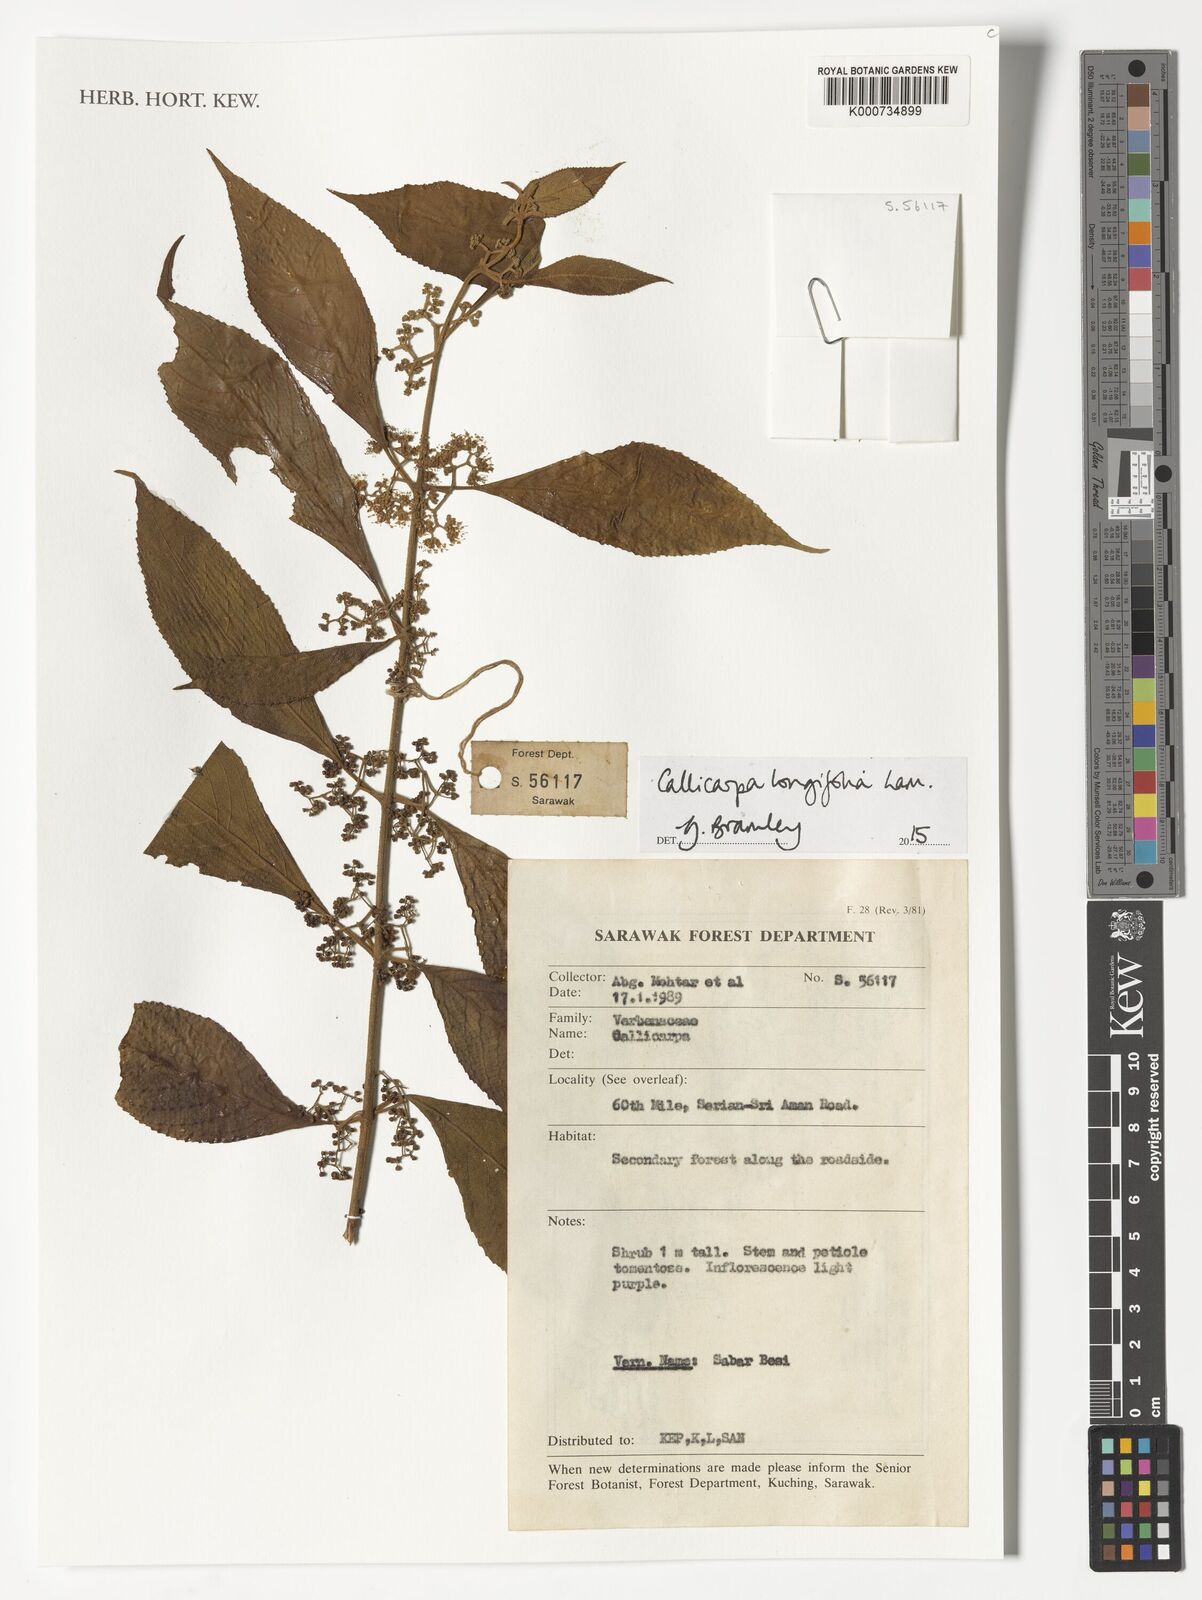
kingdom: Plantae
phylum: Tracheophyta
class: Magnoliopsida
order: Lamiales
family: Lamiaceae
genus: Callicarpa
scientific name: Callicarpa longifolia
